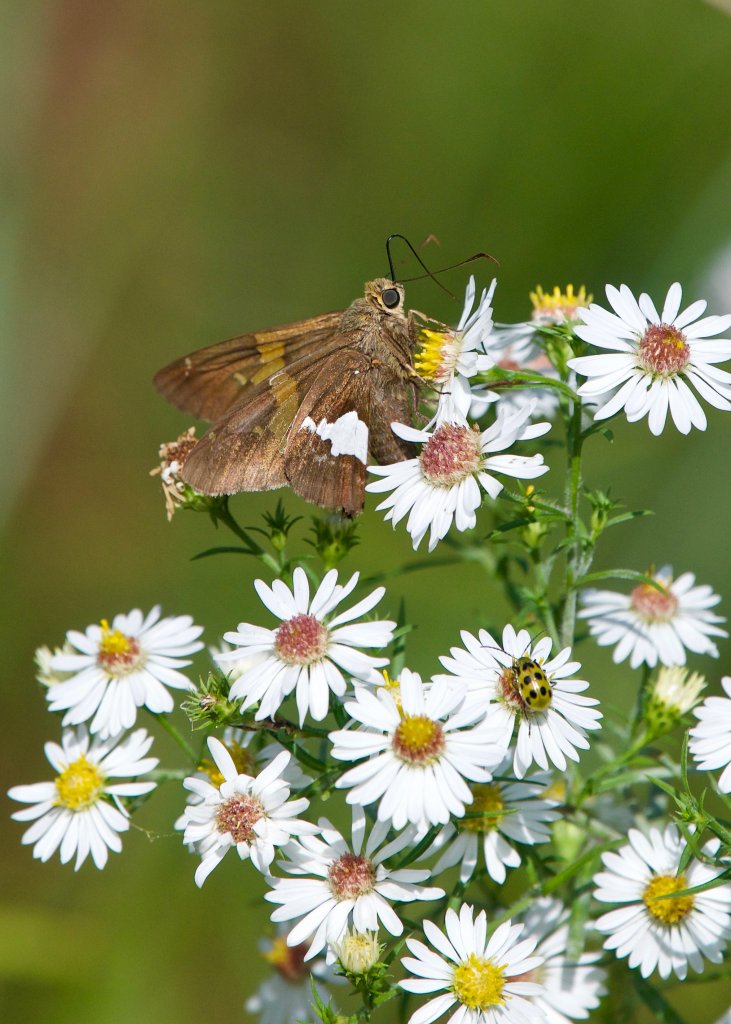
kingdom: Animalia
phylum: Arthropoda
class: Insecta
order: Lepidoptera
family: Hesperiidae
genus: Epargyreus
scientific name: Epargyreus clarus
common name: Silver-spotted Skipper
